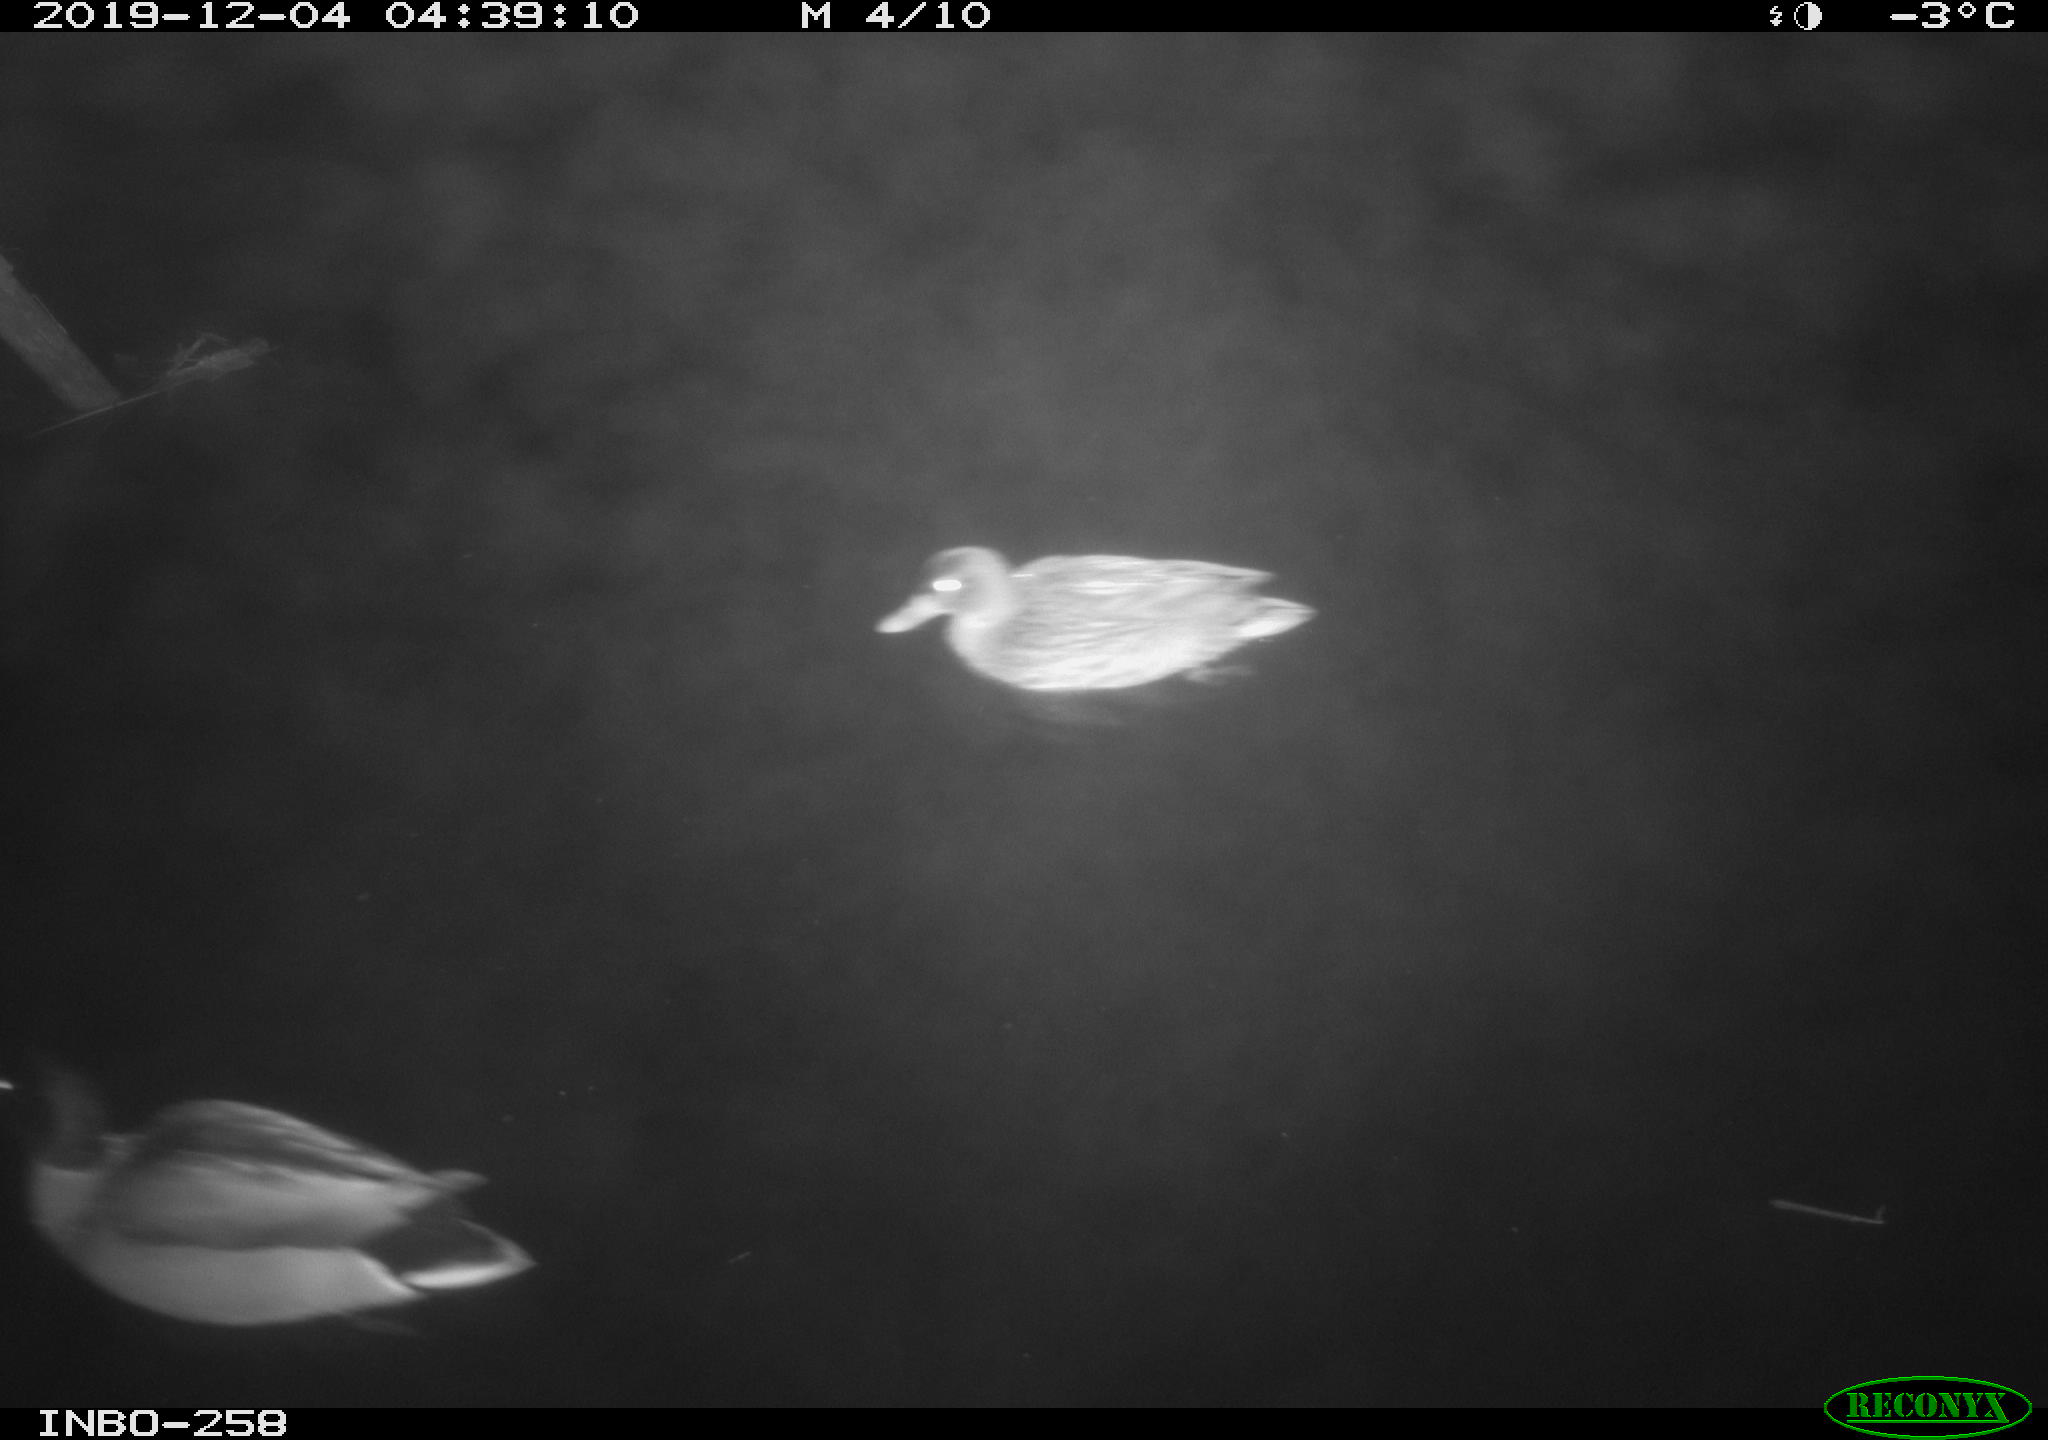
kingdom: Animalia
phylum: Chordata
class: Aves
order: Anseriformes
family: Anatidae
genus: Anas
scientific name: Anas platyrhynchos
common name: Mallard
